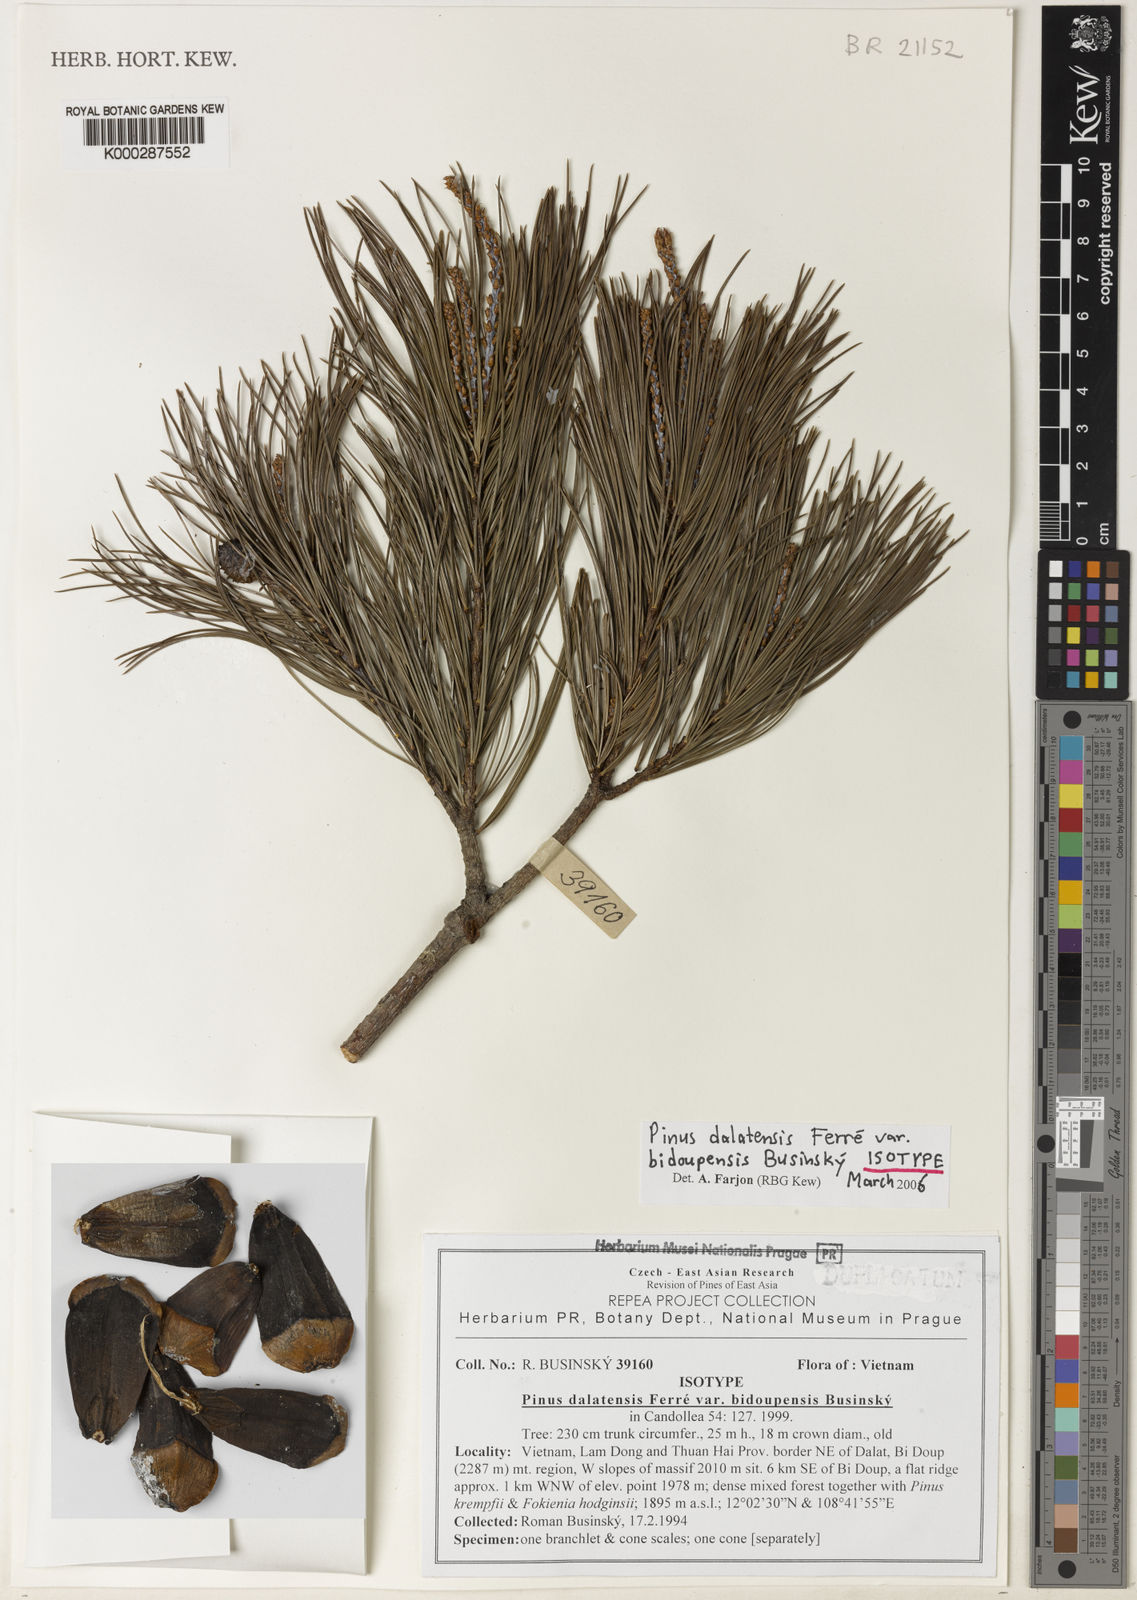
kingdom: Plantae
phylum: Tracheophyta
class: Pinopsida
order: Pinales
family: Pinaceae
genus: Pinus
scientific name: Pinus
